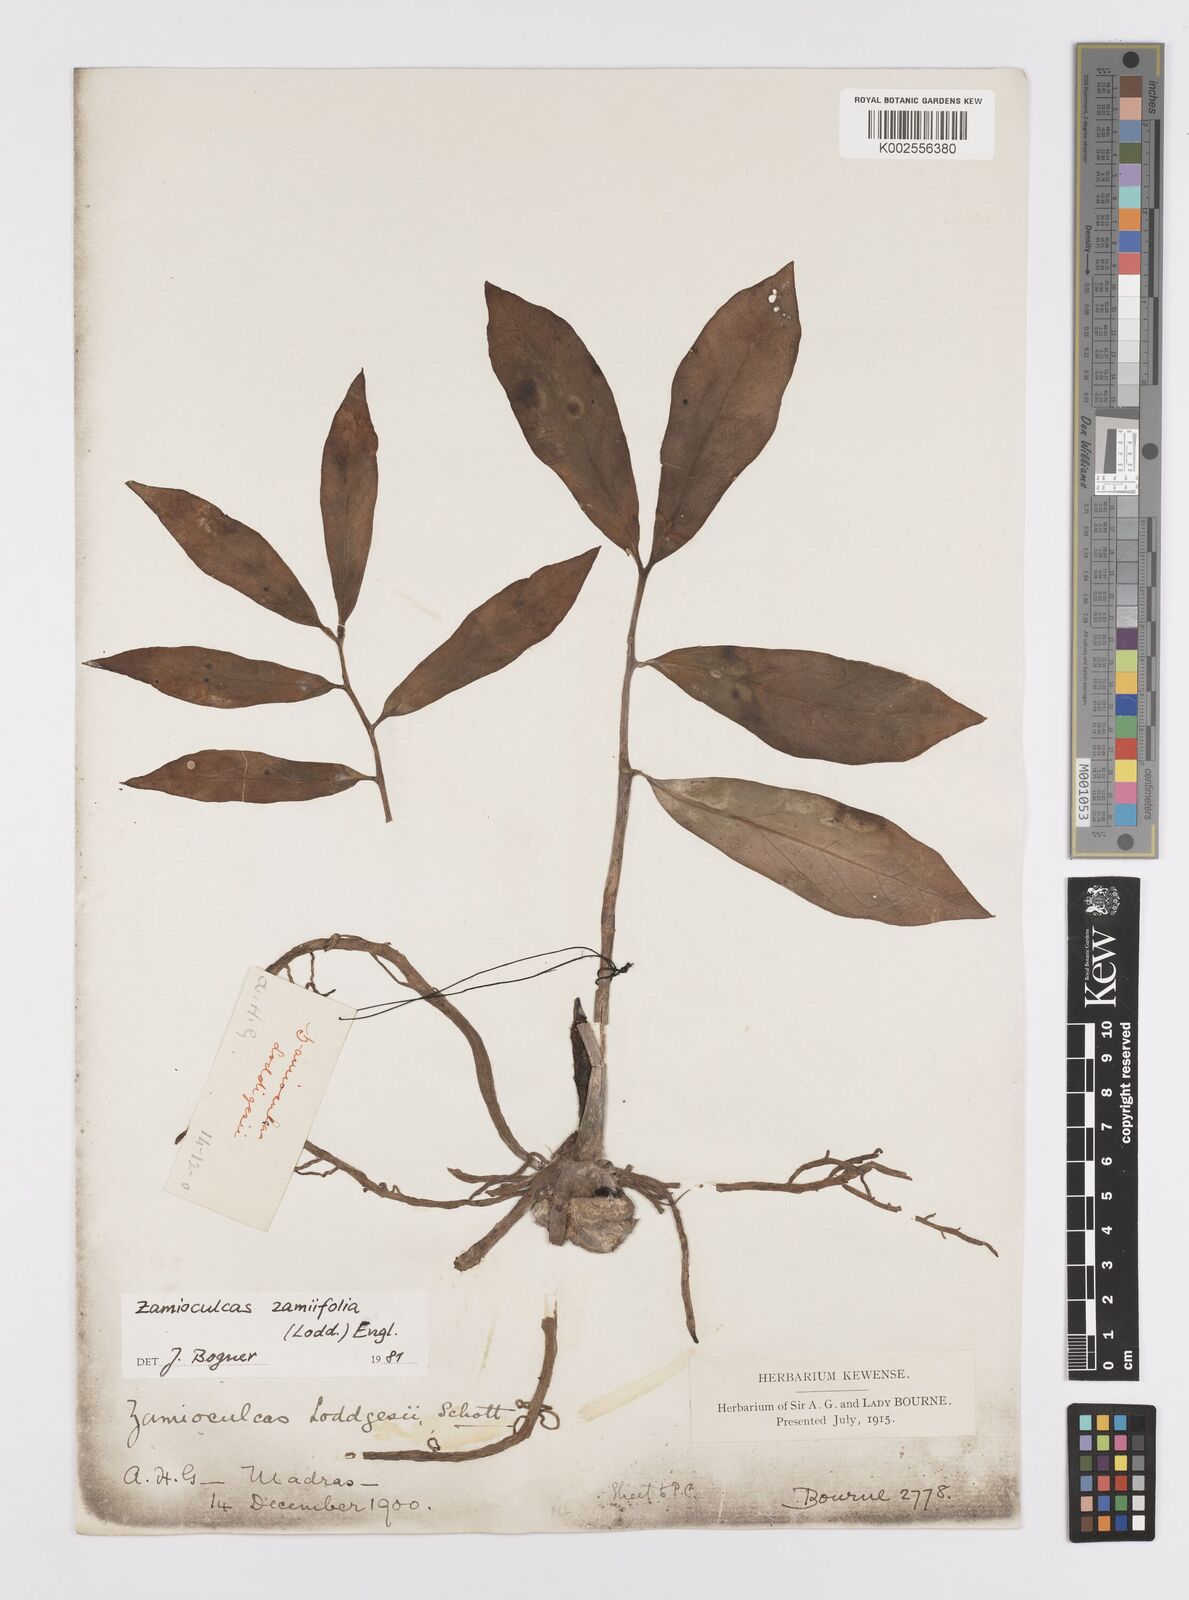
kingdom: Plantae
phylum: Tracheophyta
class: Liliopsida
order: Alismatales
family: Araceae
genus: Zamioculcas
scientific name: Zamioculcas zamiifolia
